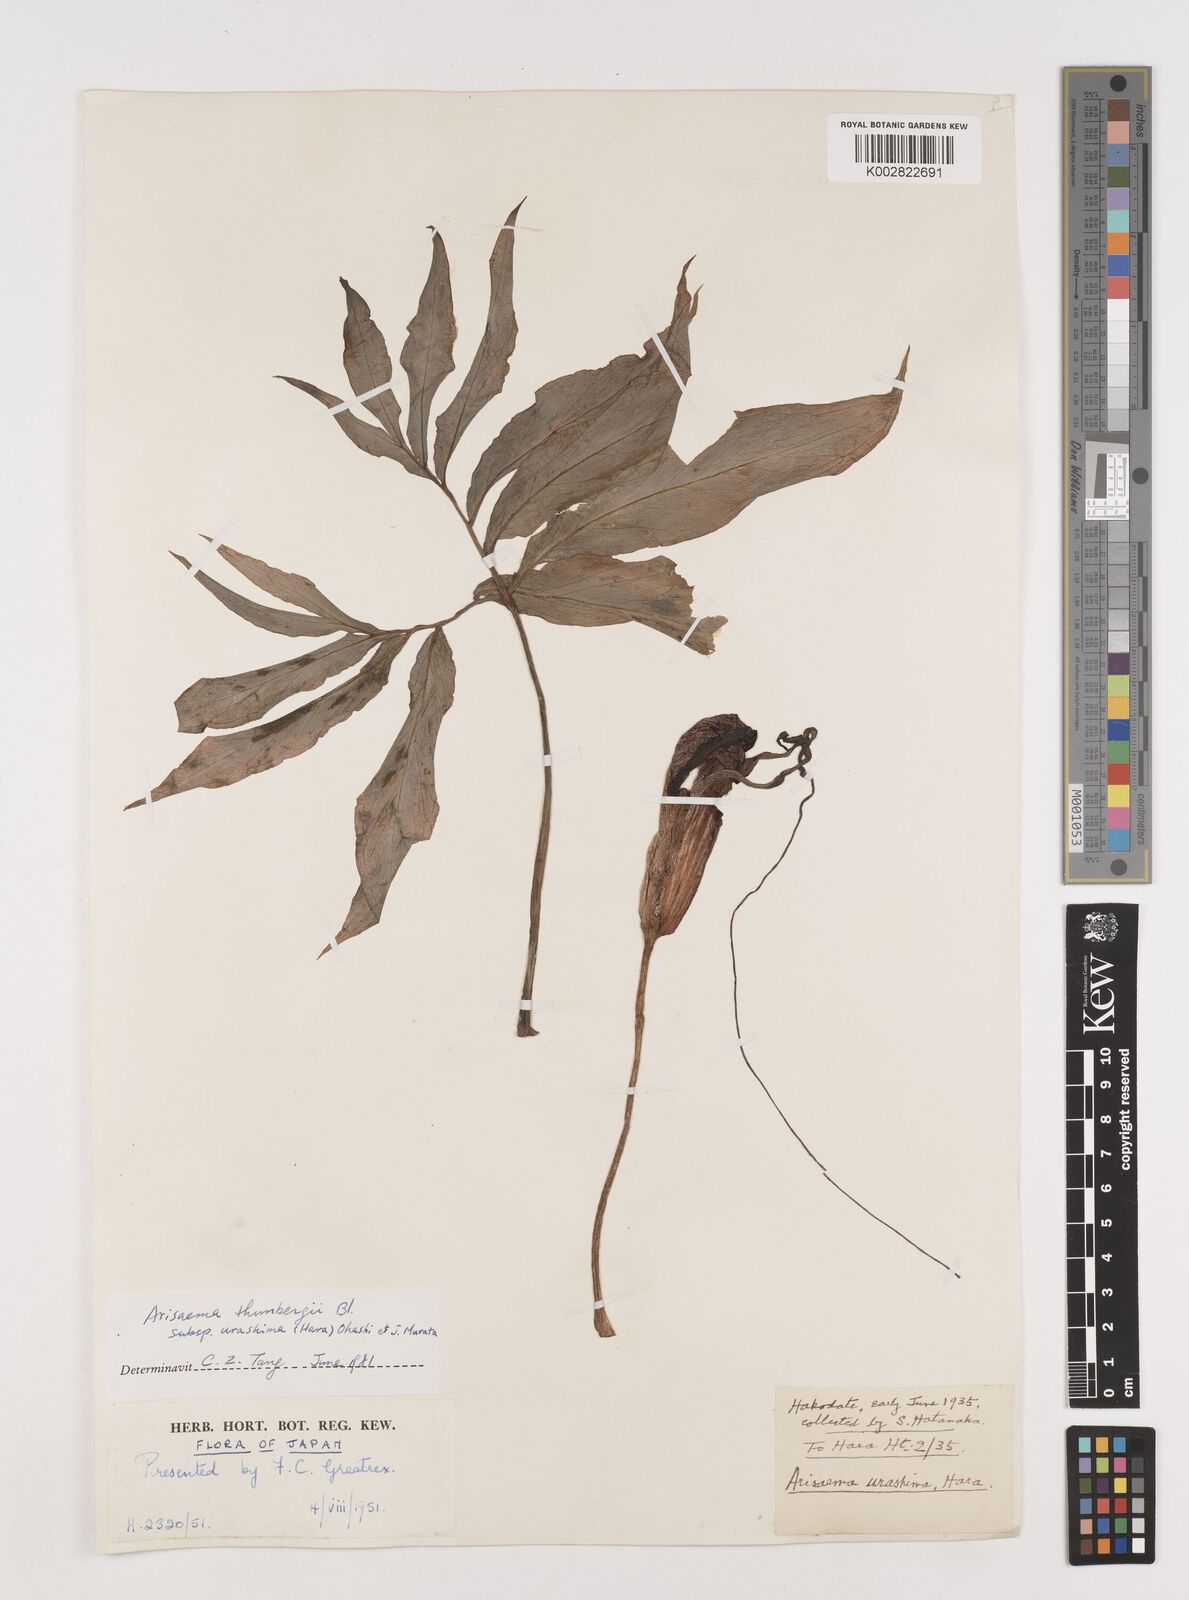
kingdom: Plantae
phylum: Tracheophyta
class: Liliopsida
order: Alismatales
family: Araceae
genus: Arisaema
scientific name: Arisaema thunbergii
